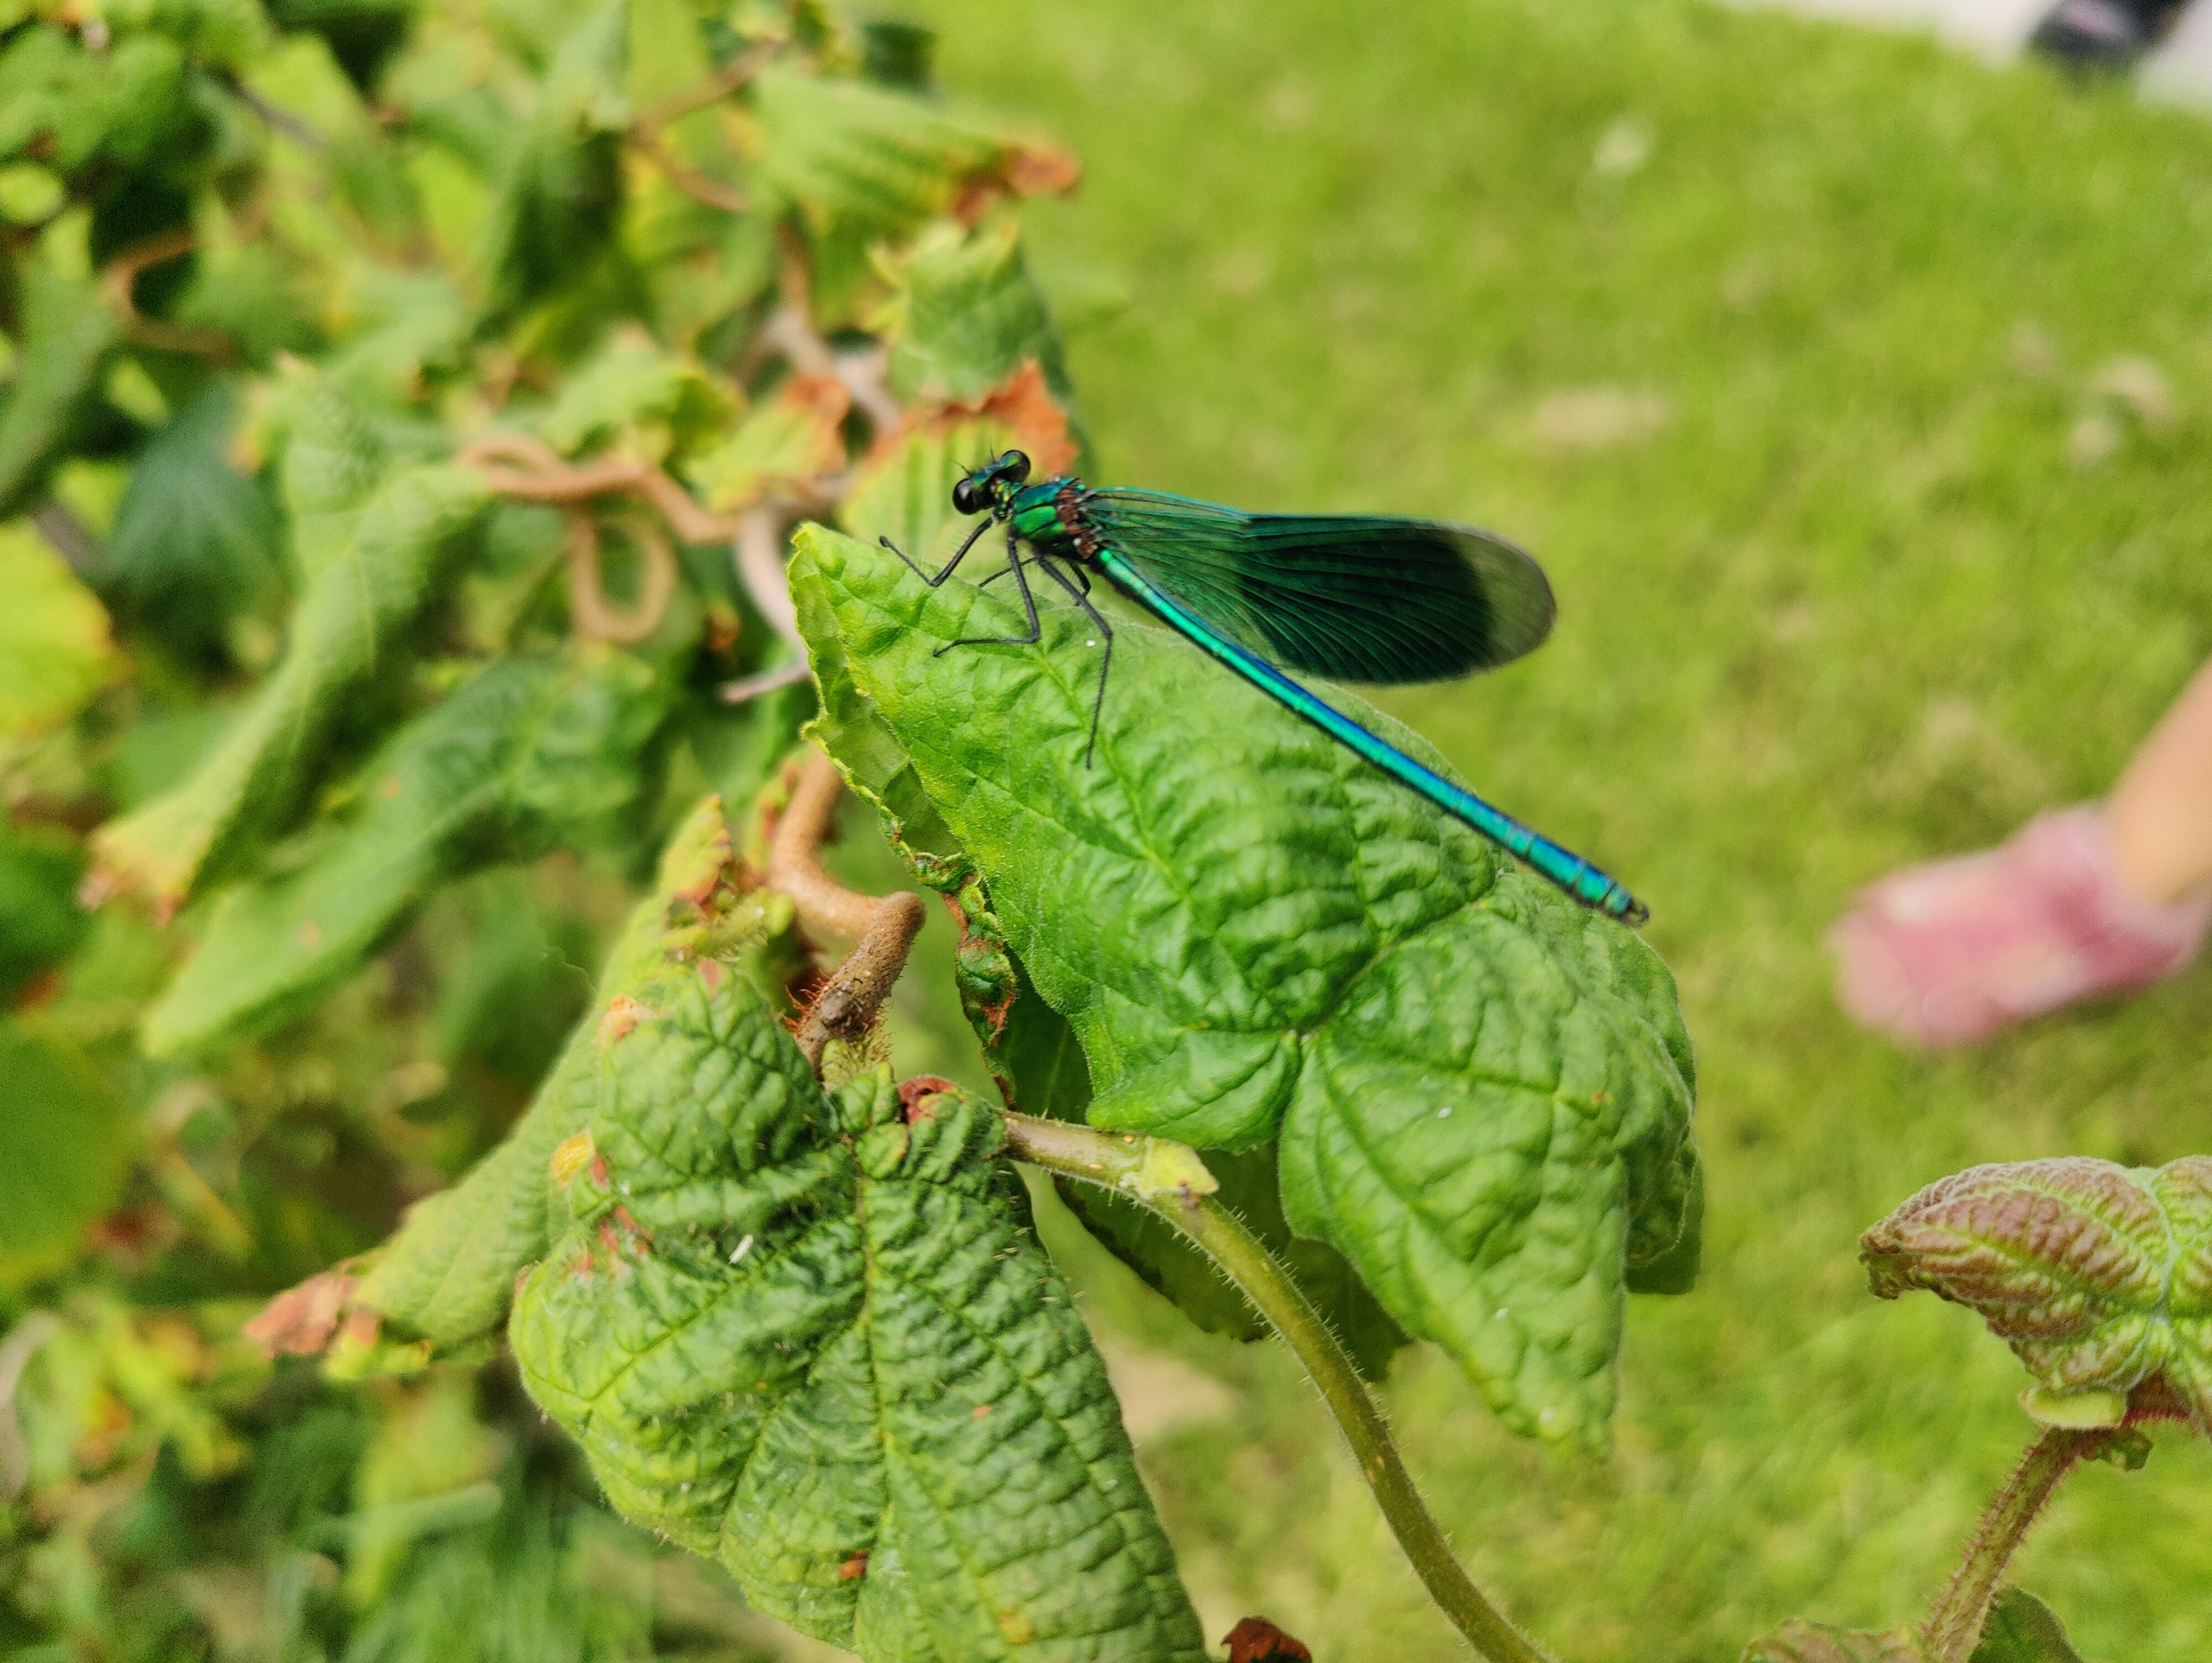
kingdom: Animalia
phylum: Arthropoda
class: Insecta
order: Odonata
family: Calopterygidae
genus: Calopteryx
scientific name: Calopteryx splendens
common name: Blåbåndet pragtvandnymfe
